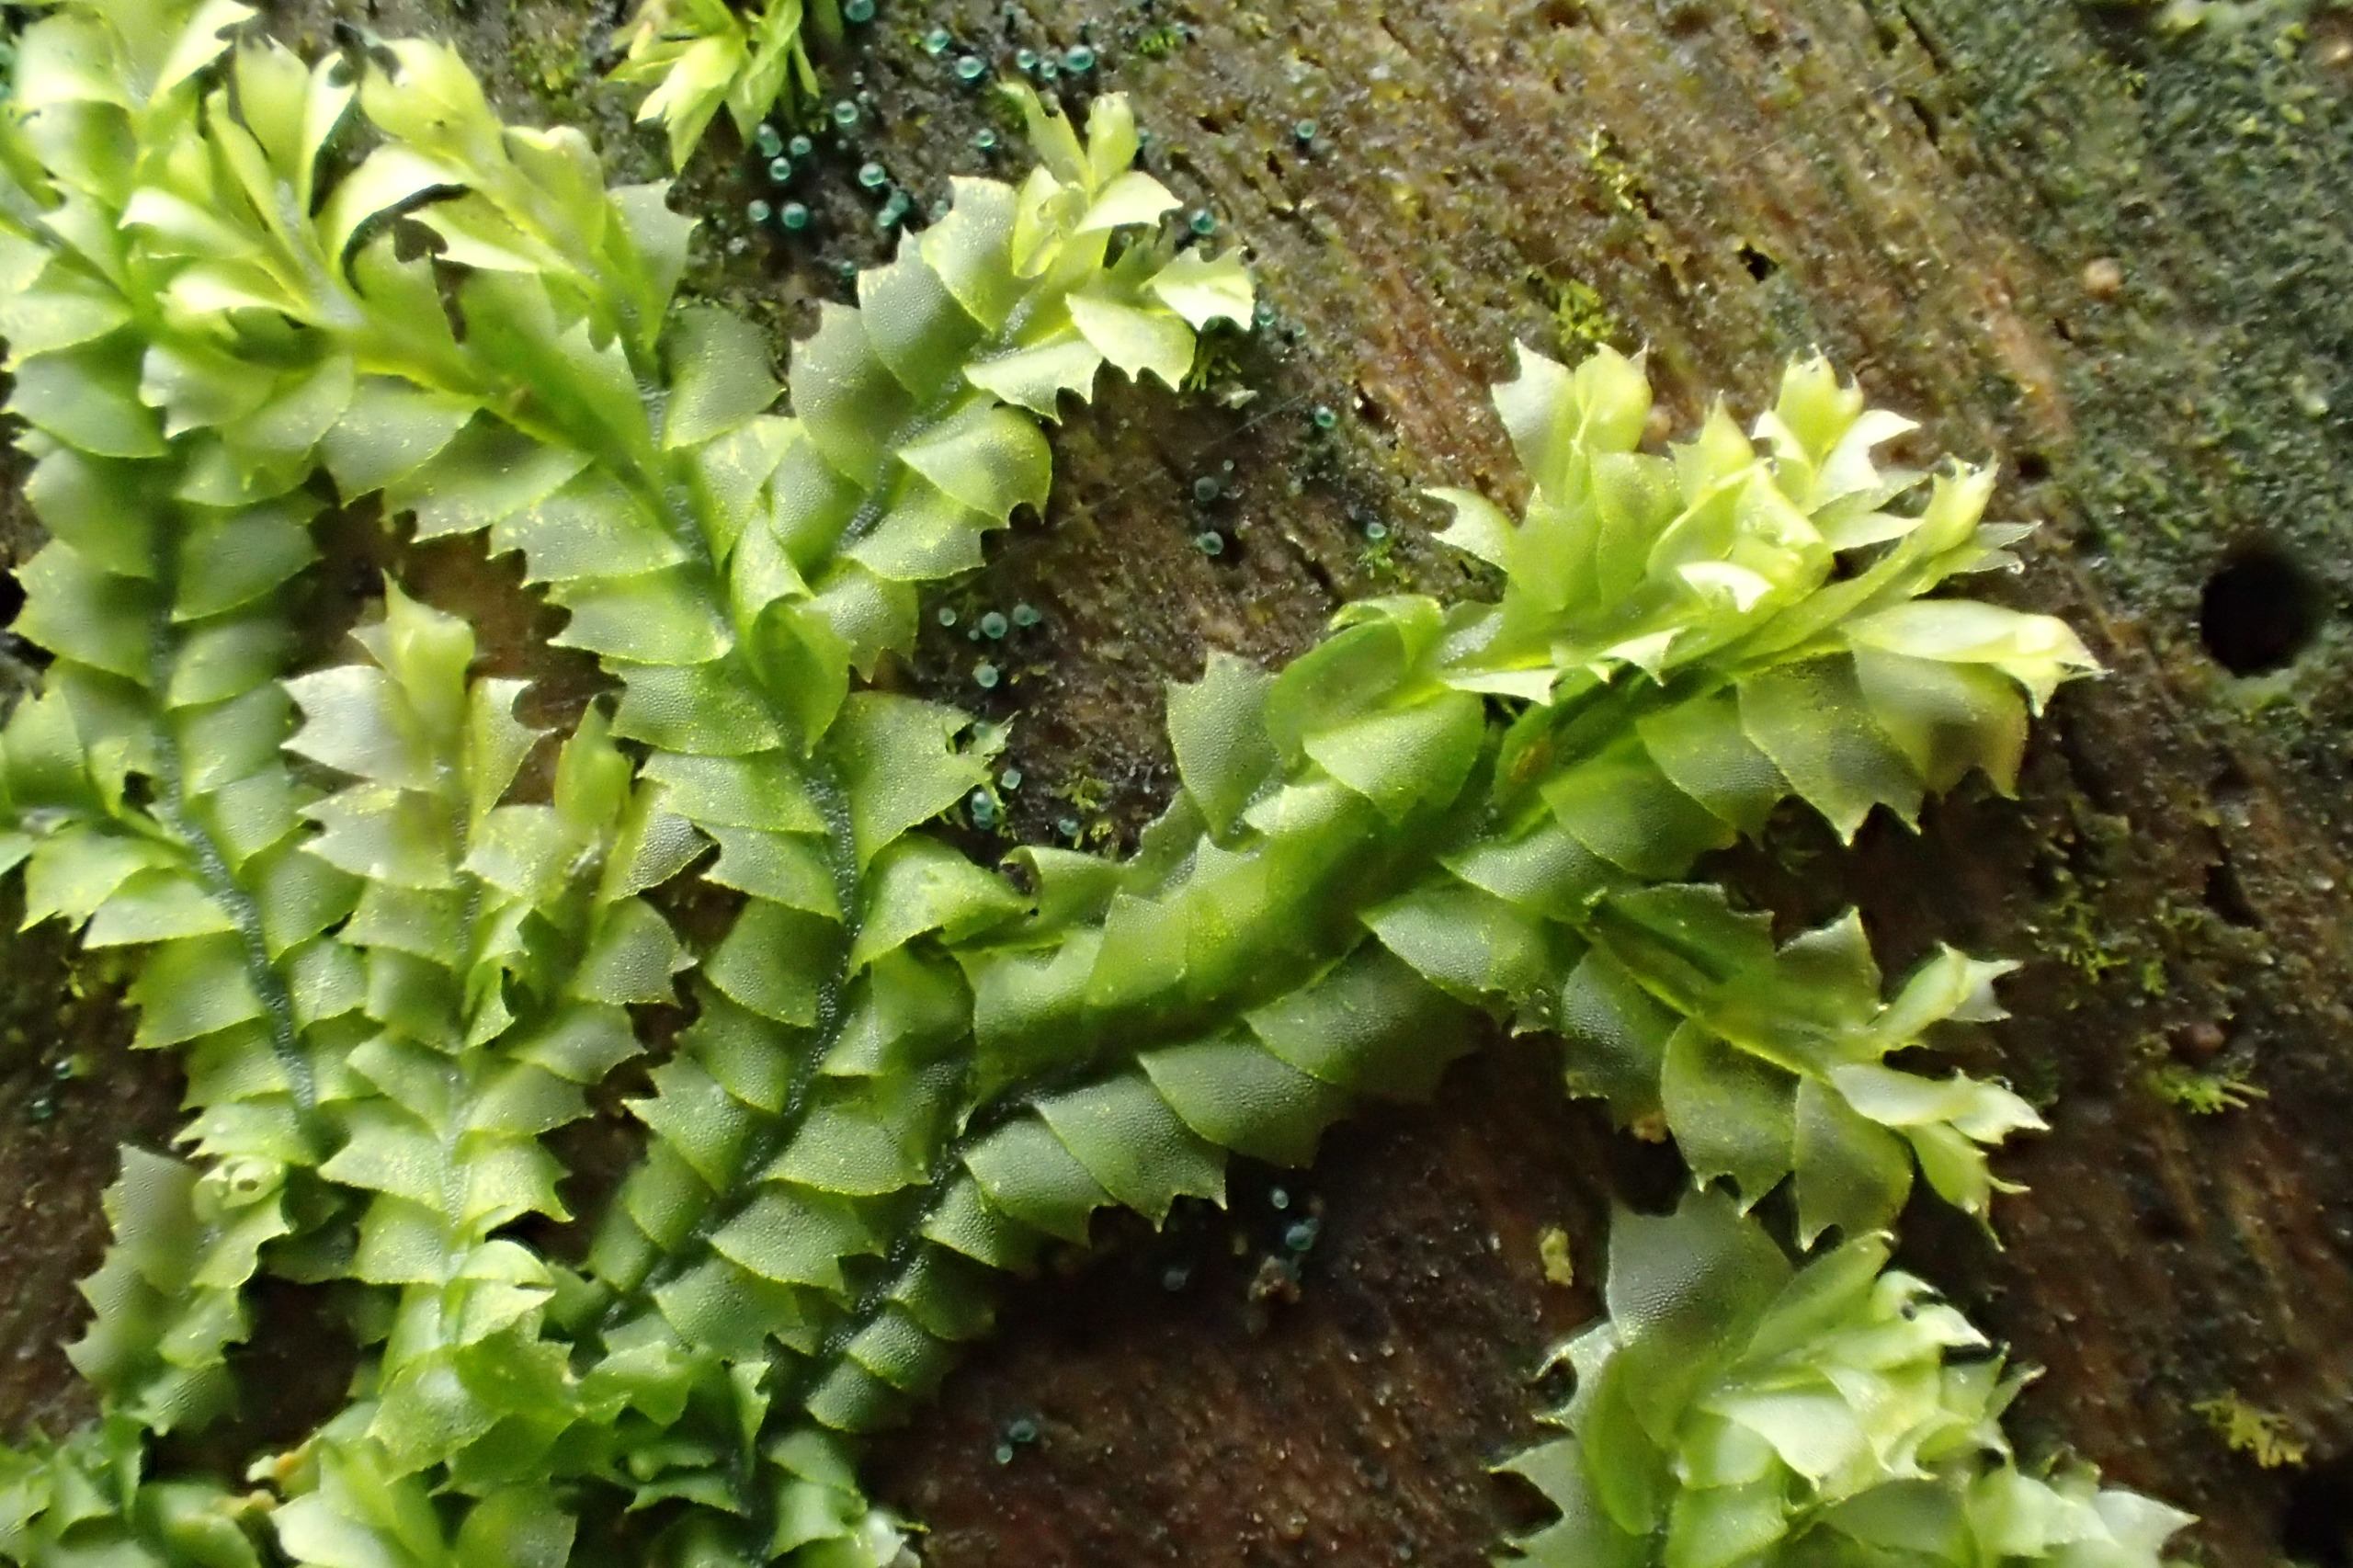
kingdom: Plantae
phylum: Marchantiophyta
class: Jungermanniopsida
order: Jungermanniales
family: Lophocoleaceae
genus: Lophocolea
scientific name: Lophocolea bidentata
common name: Sylspidset kamsvøb
